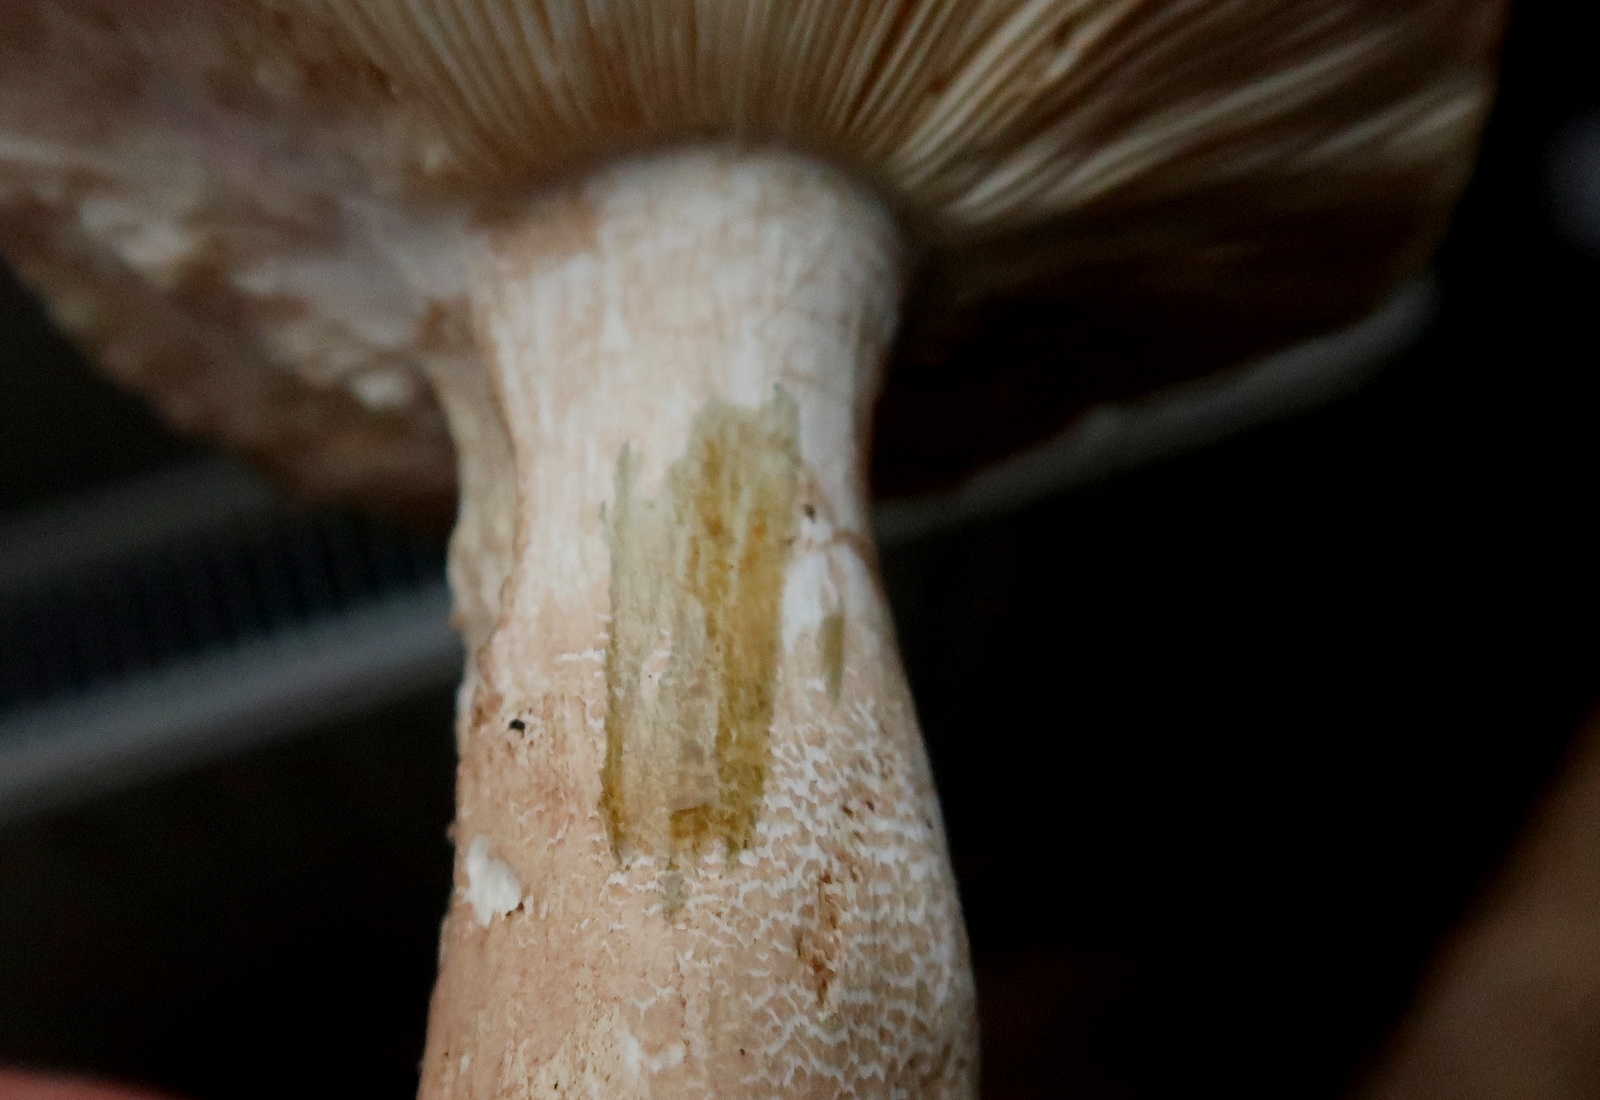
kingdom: Fungi
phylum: Basidiomycota
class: Agaricomycetes
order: Russulales
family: Russulaceae
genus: Russula
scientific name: Russula veternosa
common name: blødkødet skørhat
